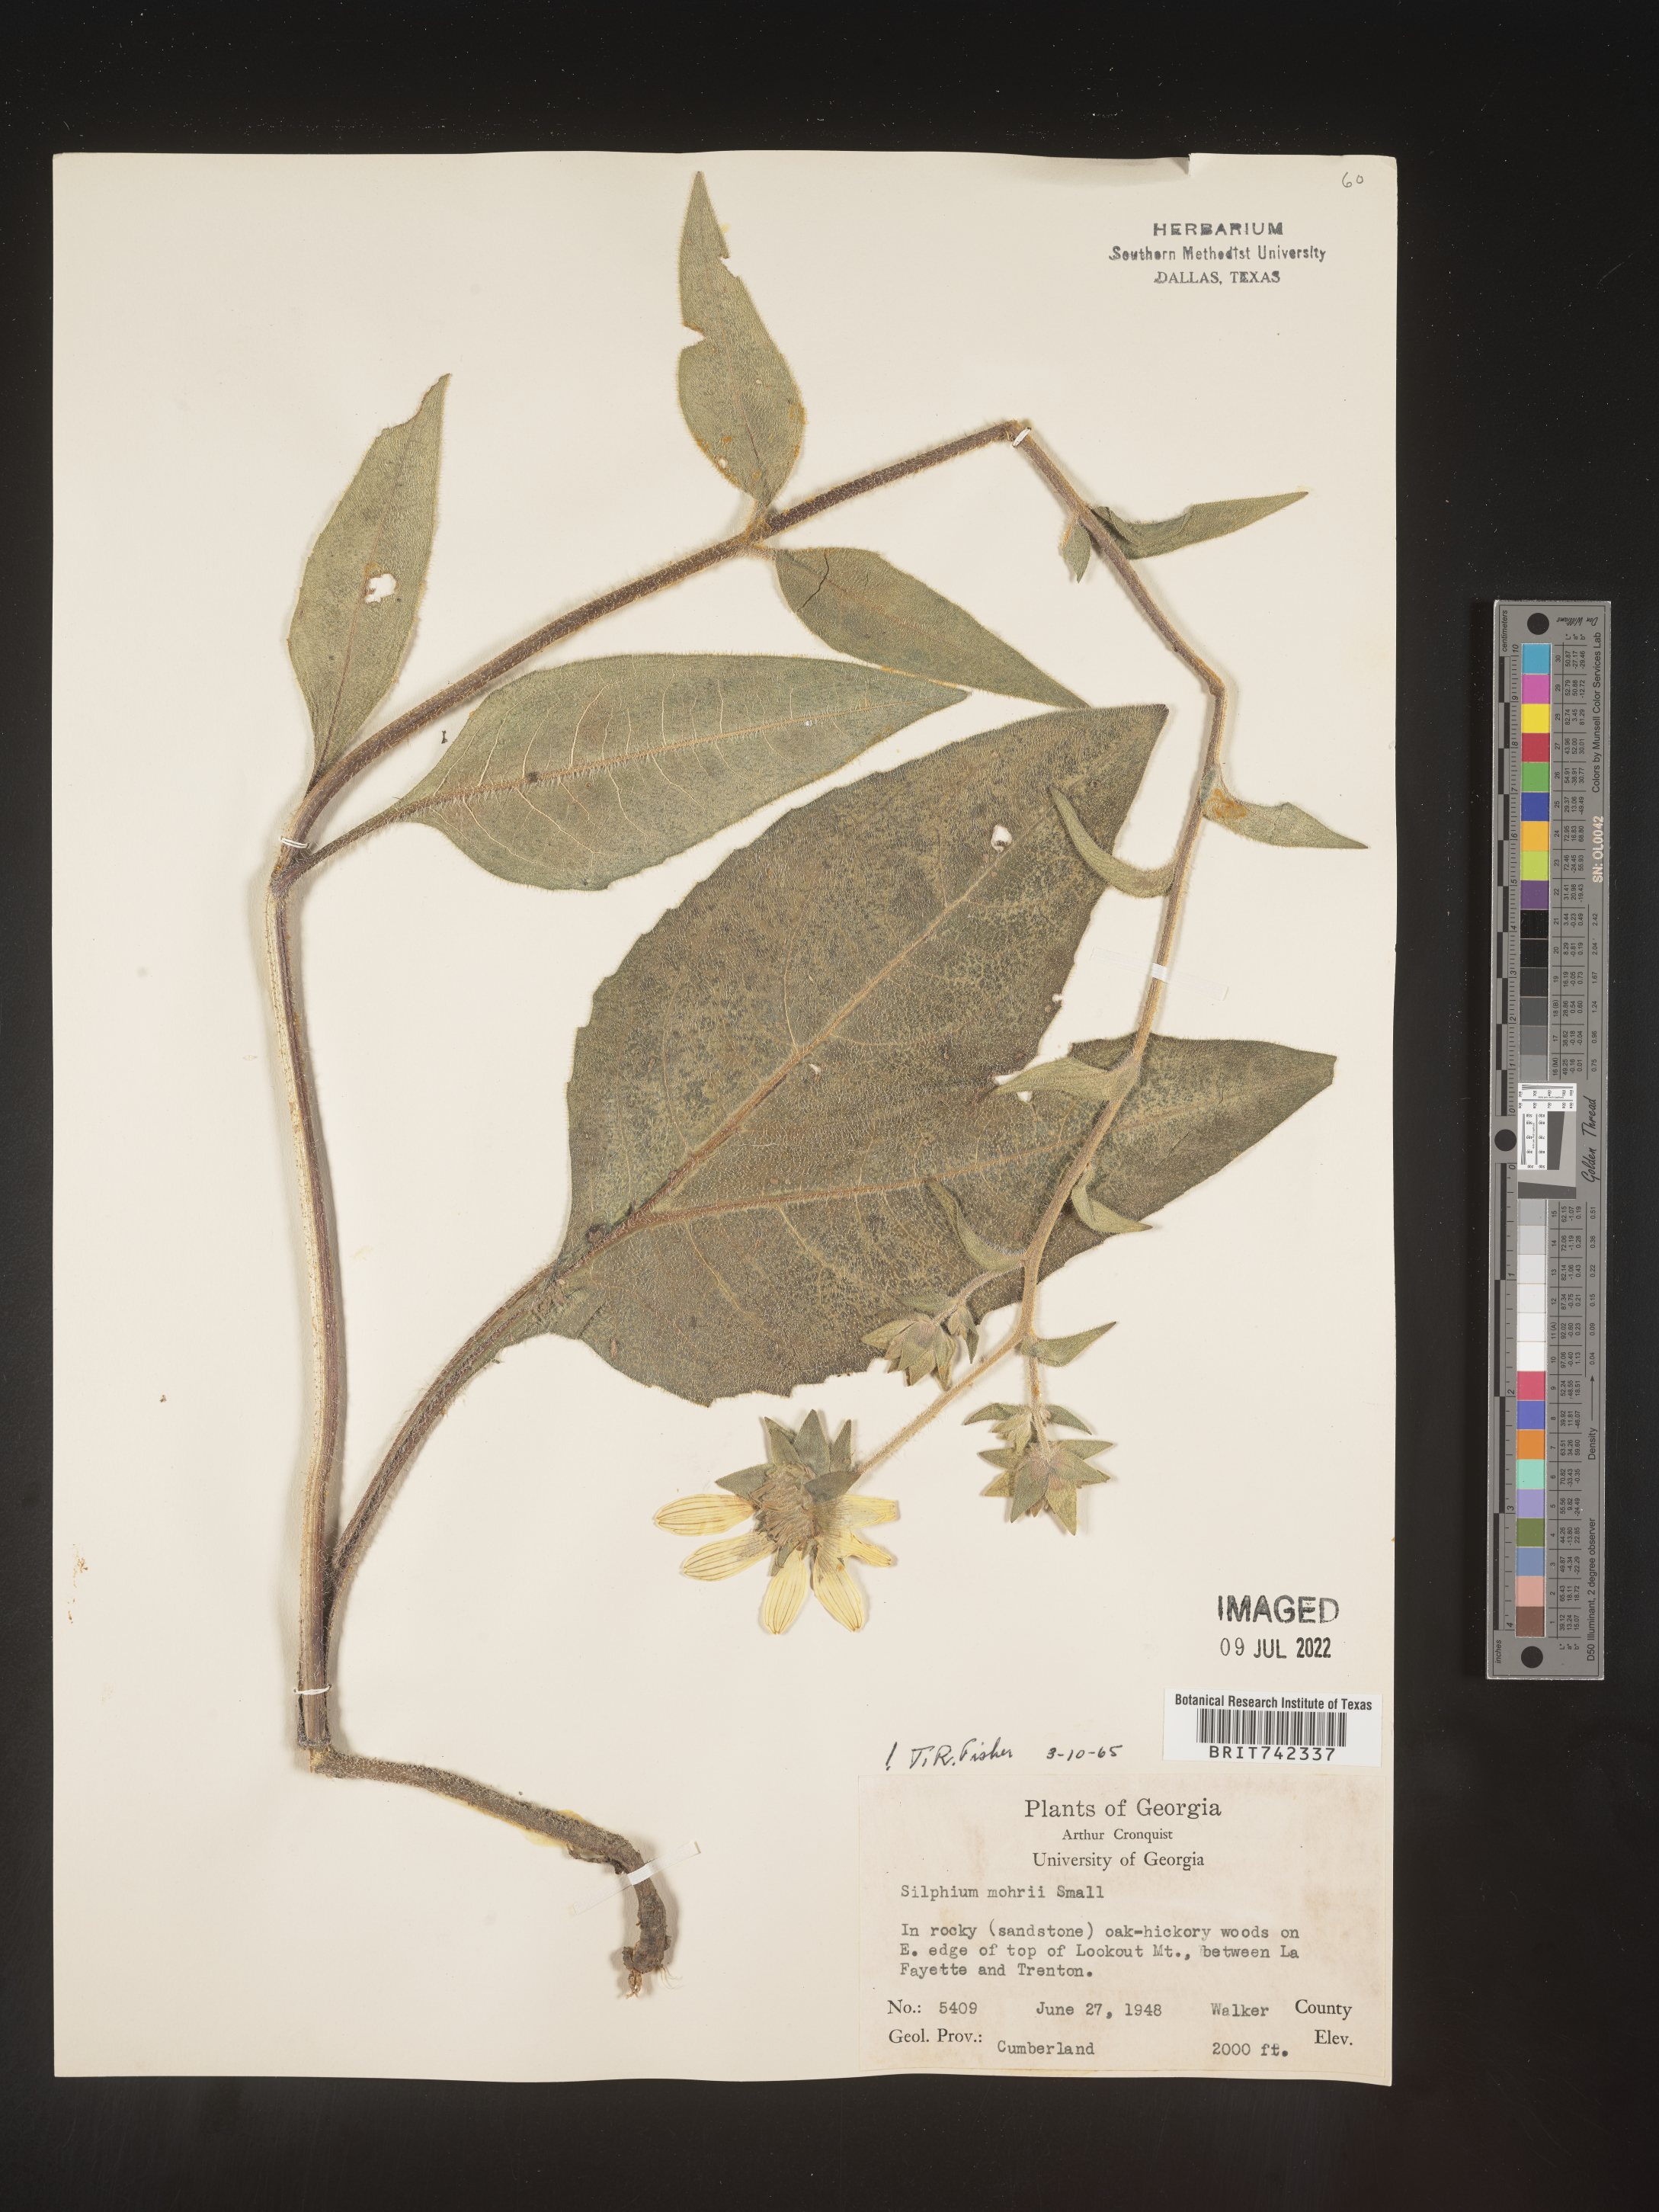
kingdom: Plantae
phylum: Tracheophyta
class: Magnoliopsida
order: Asterales
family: Asteraceae
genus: Silphium
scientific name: Silphium mohrii
